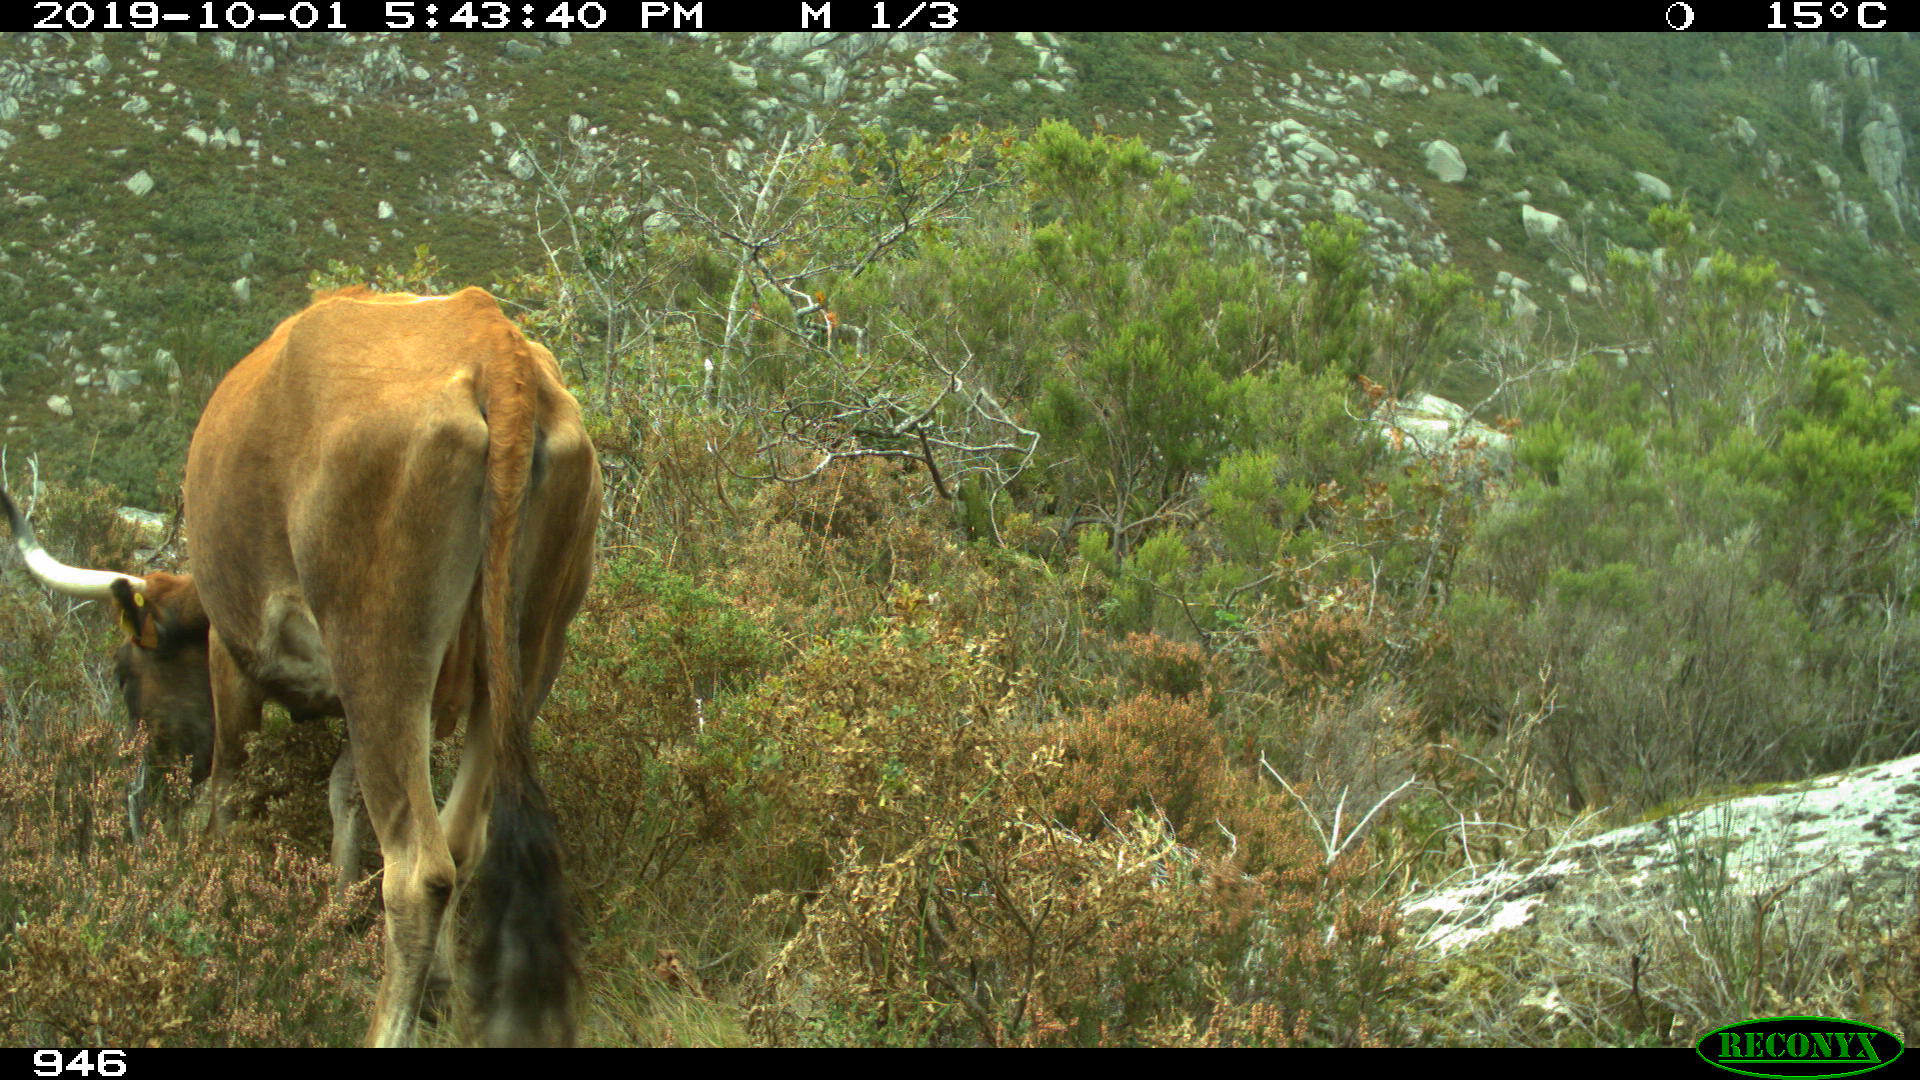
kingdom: Animalia
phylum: Chordata
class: Mammalia
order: Artiodactyla
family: Bovidae
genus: Bos
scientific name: Bos taurus
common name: Domesticated cattle
